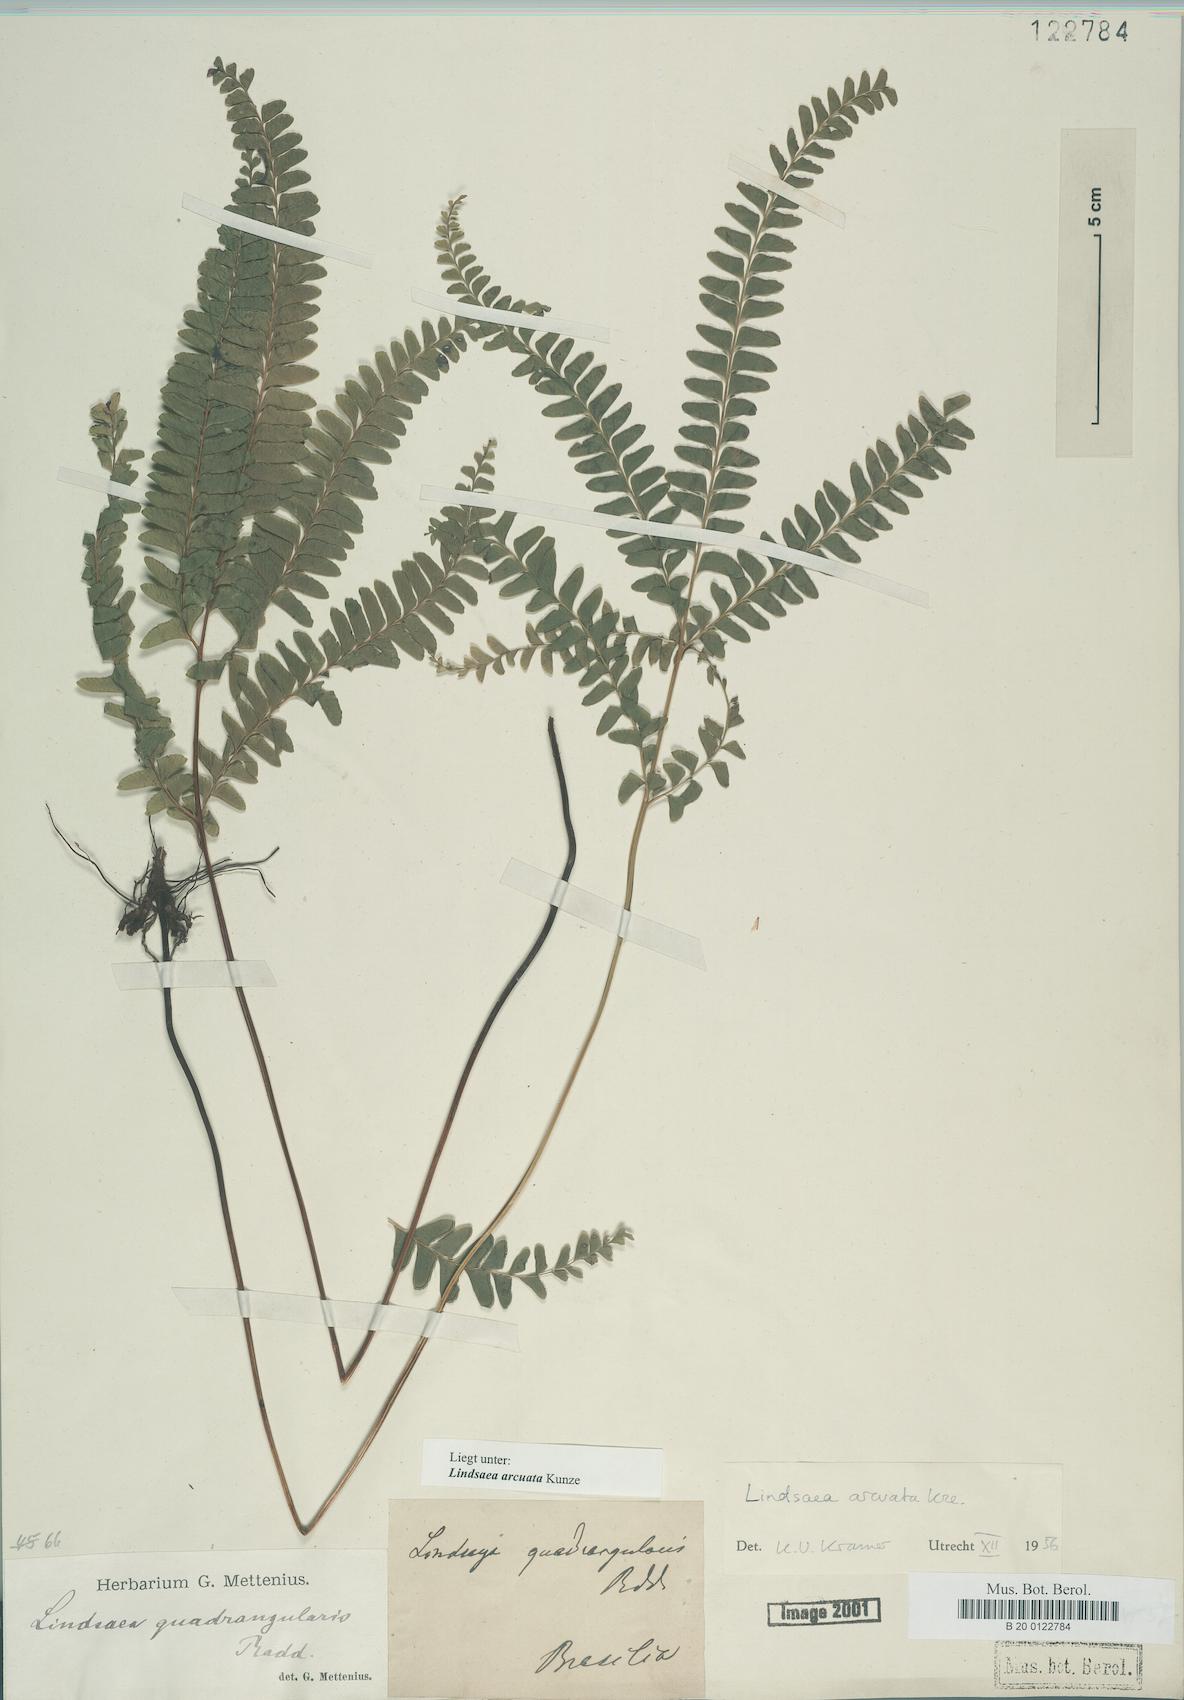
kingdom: Plantae
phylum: Tracheophyta
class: Polypodiopsida
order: Polypodiales
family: Lindsaeaceae
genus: Lindsaea
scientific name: Lindsaea arcuata
